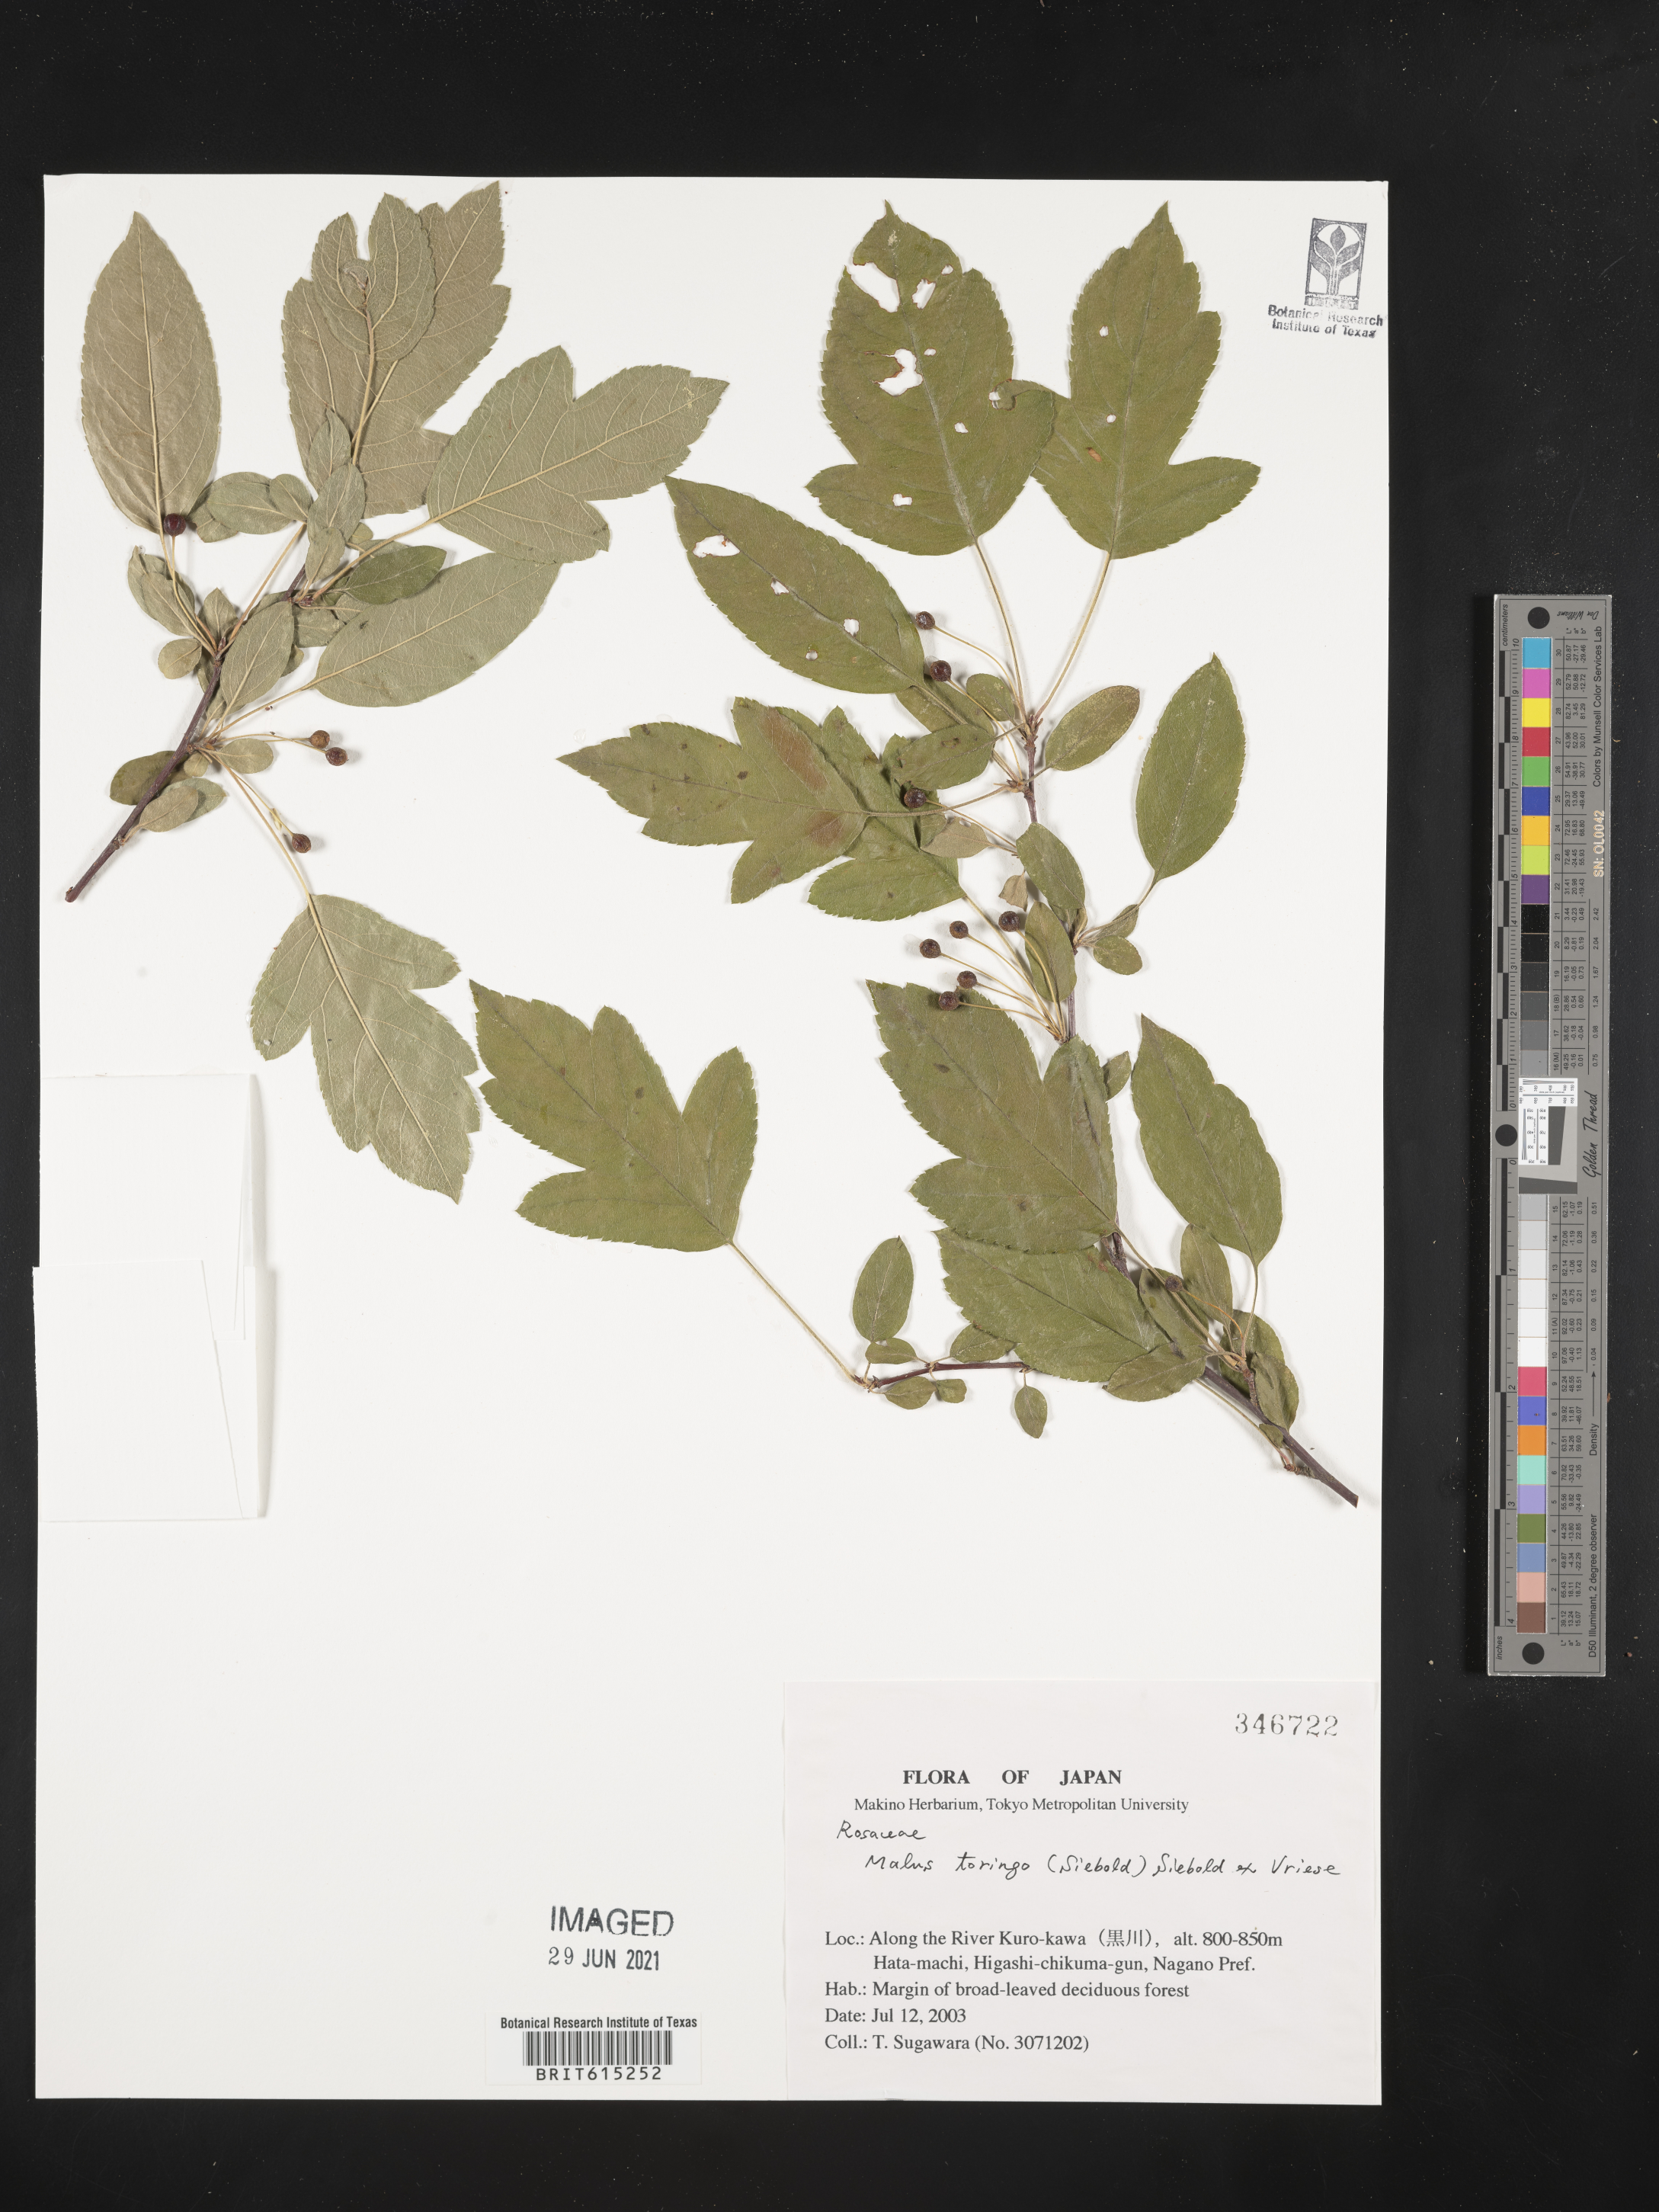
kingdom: Plantae
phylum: Tracheophyta
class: Magnoliopsida
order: Rosales
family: Rosaceae
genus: Malus
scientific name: Malus toringo
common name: Japanese crabapple
